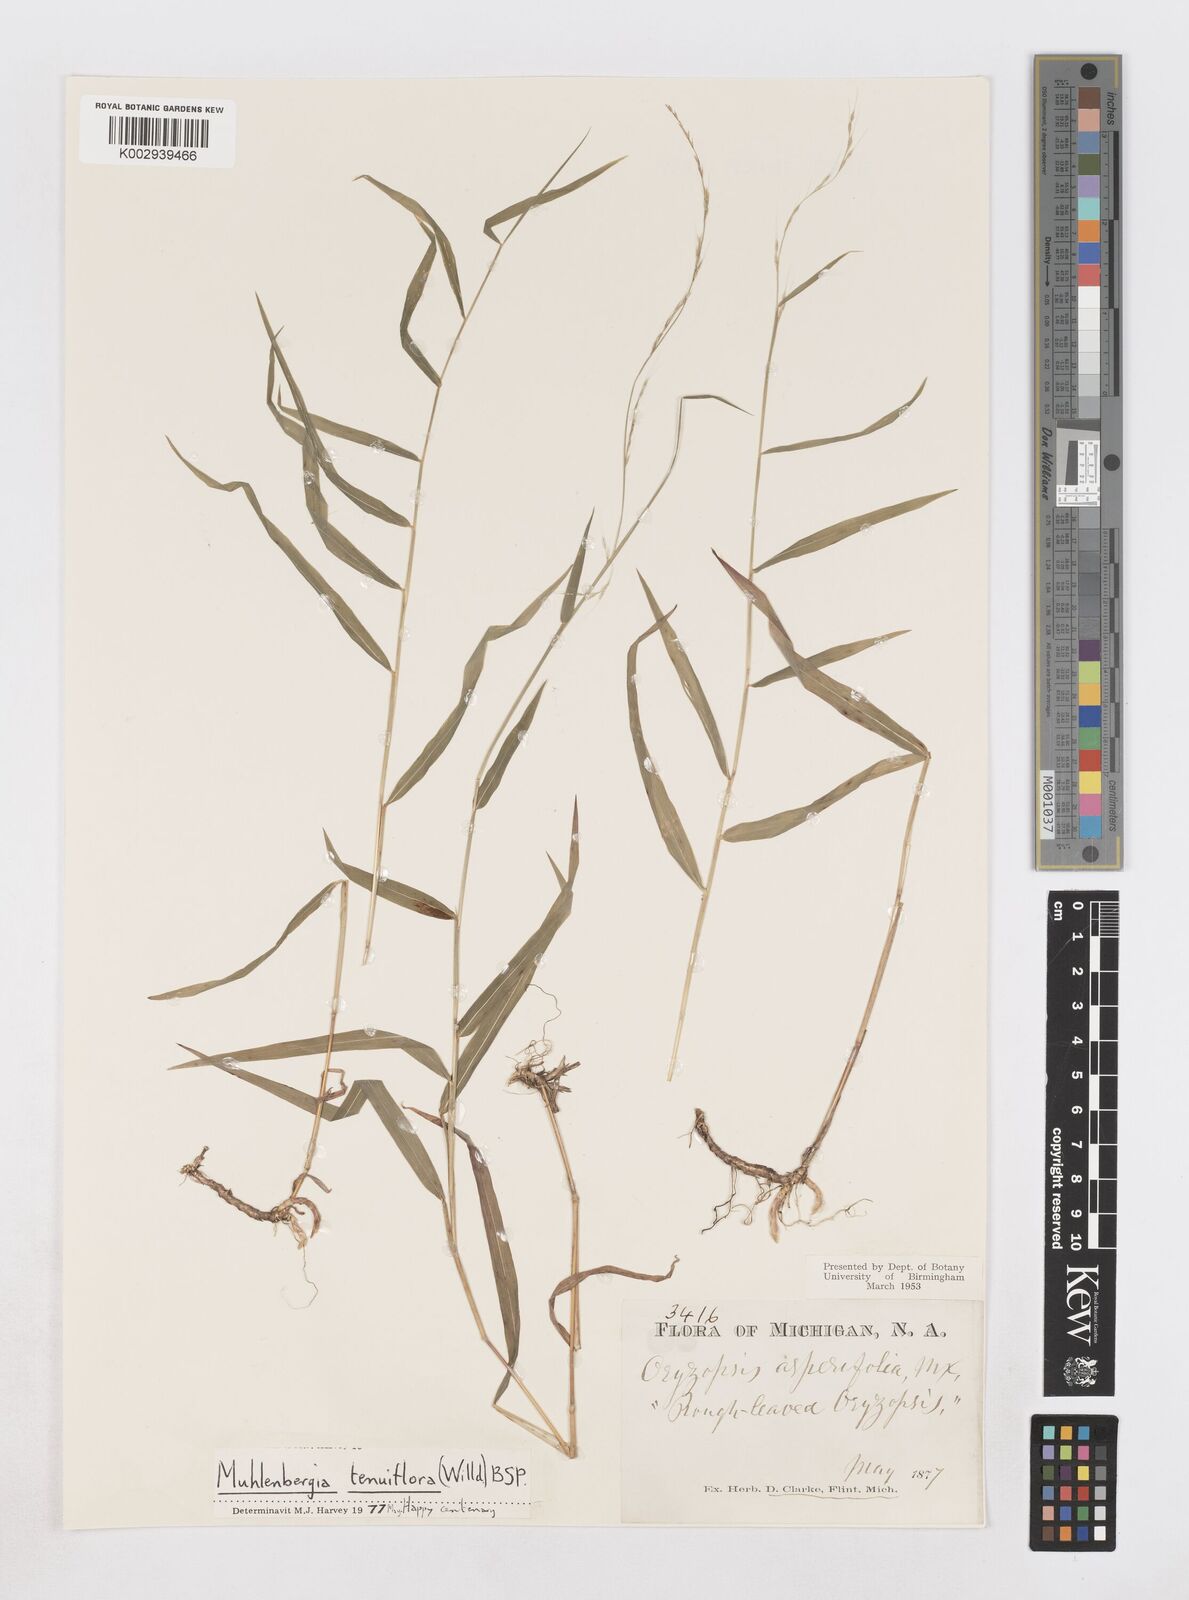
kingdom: Plantae
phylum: Tracheophyta
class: Liliopsida
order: Poales
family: Poaceae
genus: Muhlenbergia
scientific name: Muhlenbergia tenuiflora
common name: Slender muhly
